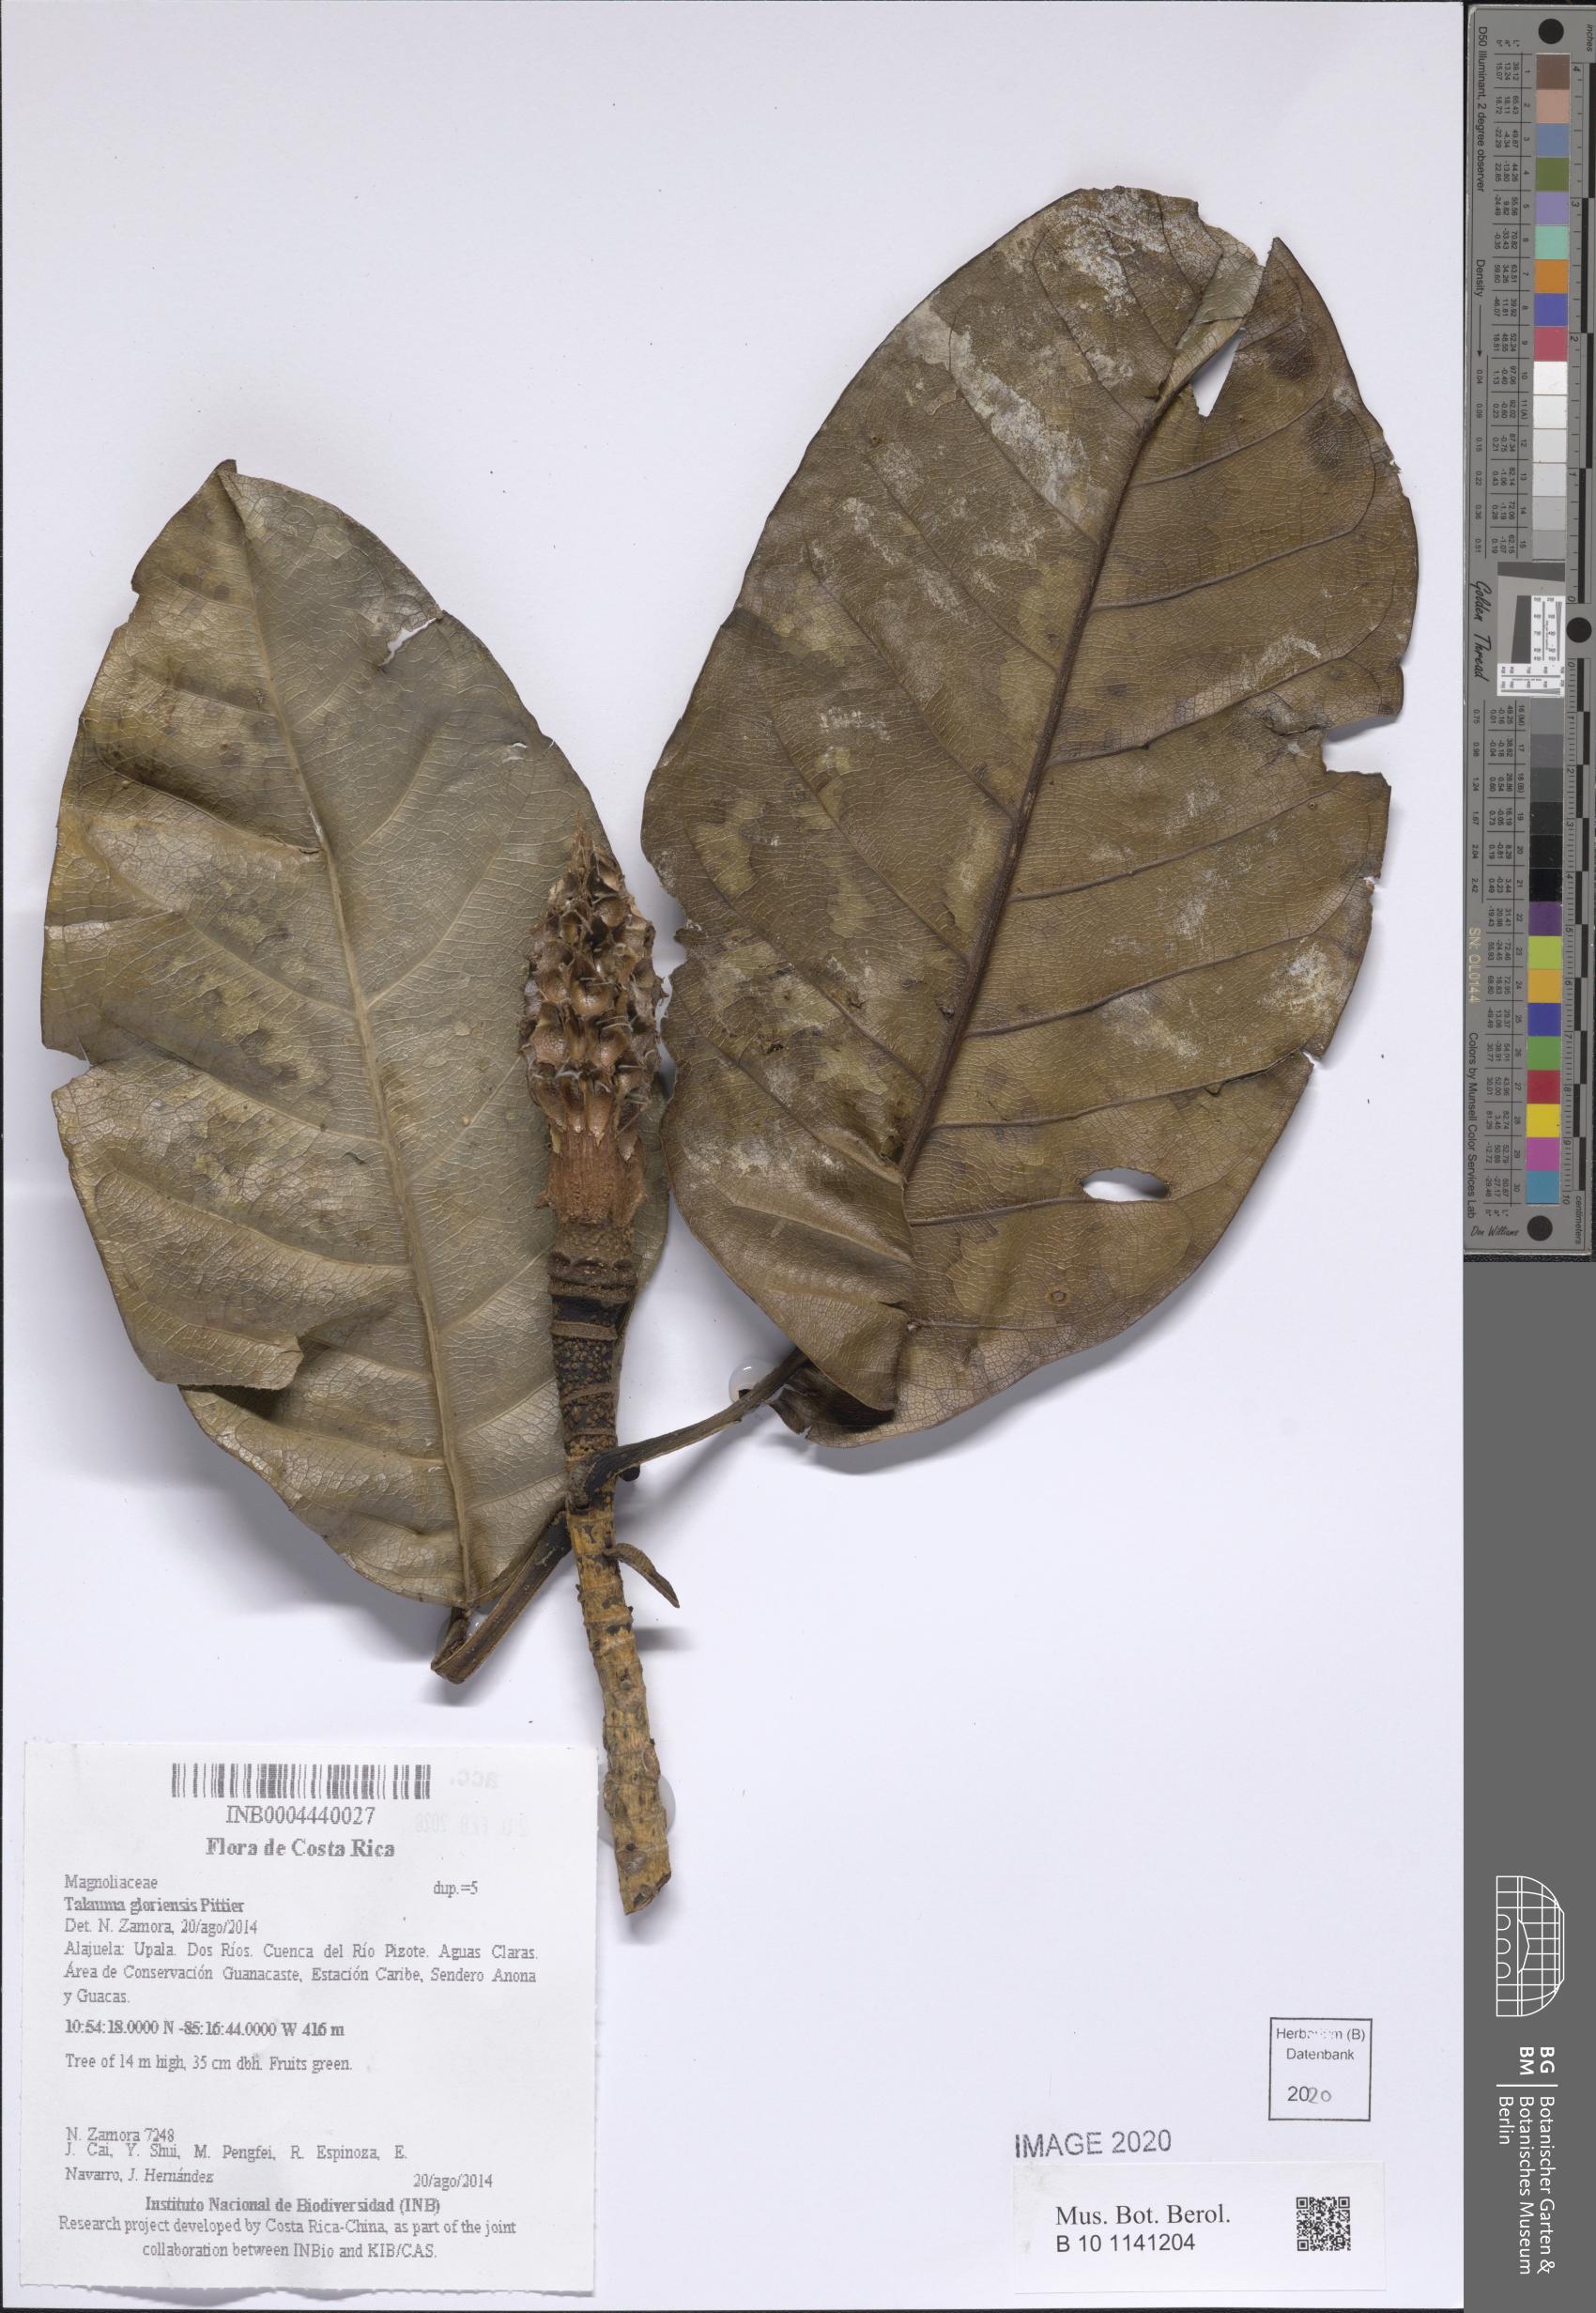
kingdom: Plantae
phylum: Tracheophyta
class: Magnoliopsida
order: Magnoliales
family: Magnoliaceae
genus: Magnolia
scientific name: Magnolia gloriensis
